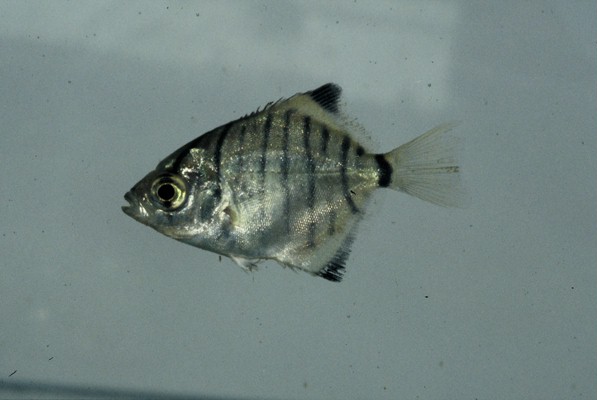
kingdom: Animalia
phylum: Chordata
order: Perciformes
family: Monodactylidae
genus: Monodactylus
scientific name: Monodactylus falciformis
